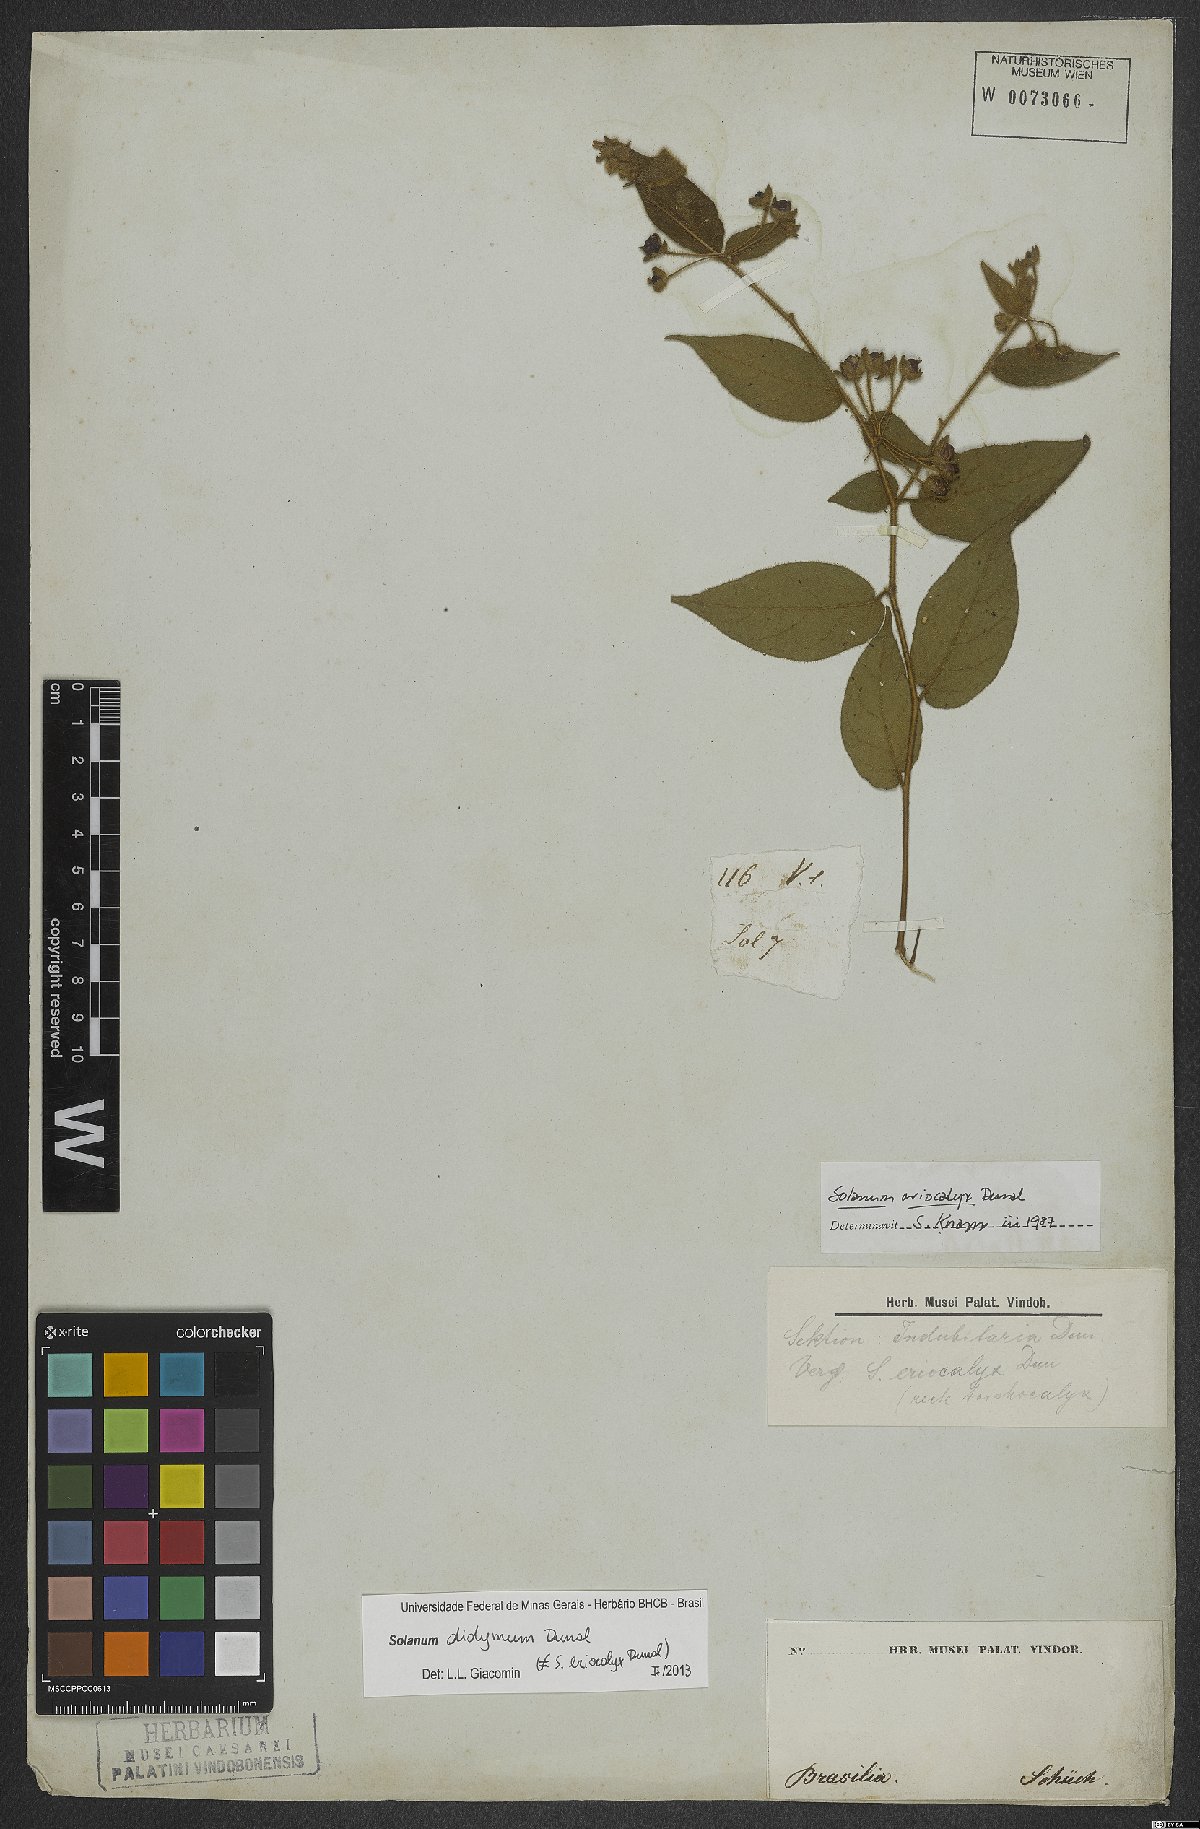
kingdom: Plantae
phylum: Tracheophyta
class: Magnoliopsida
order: Solanales
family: Solanaceae
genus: Solanum
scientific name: Solanum didymum
